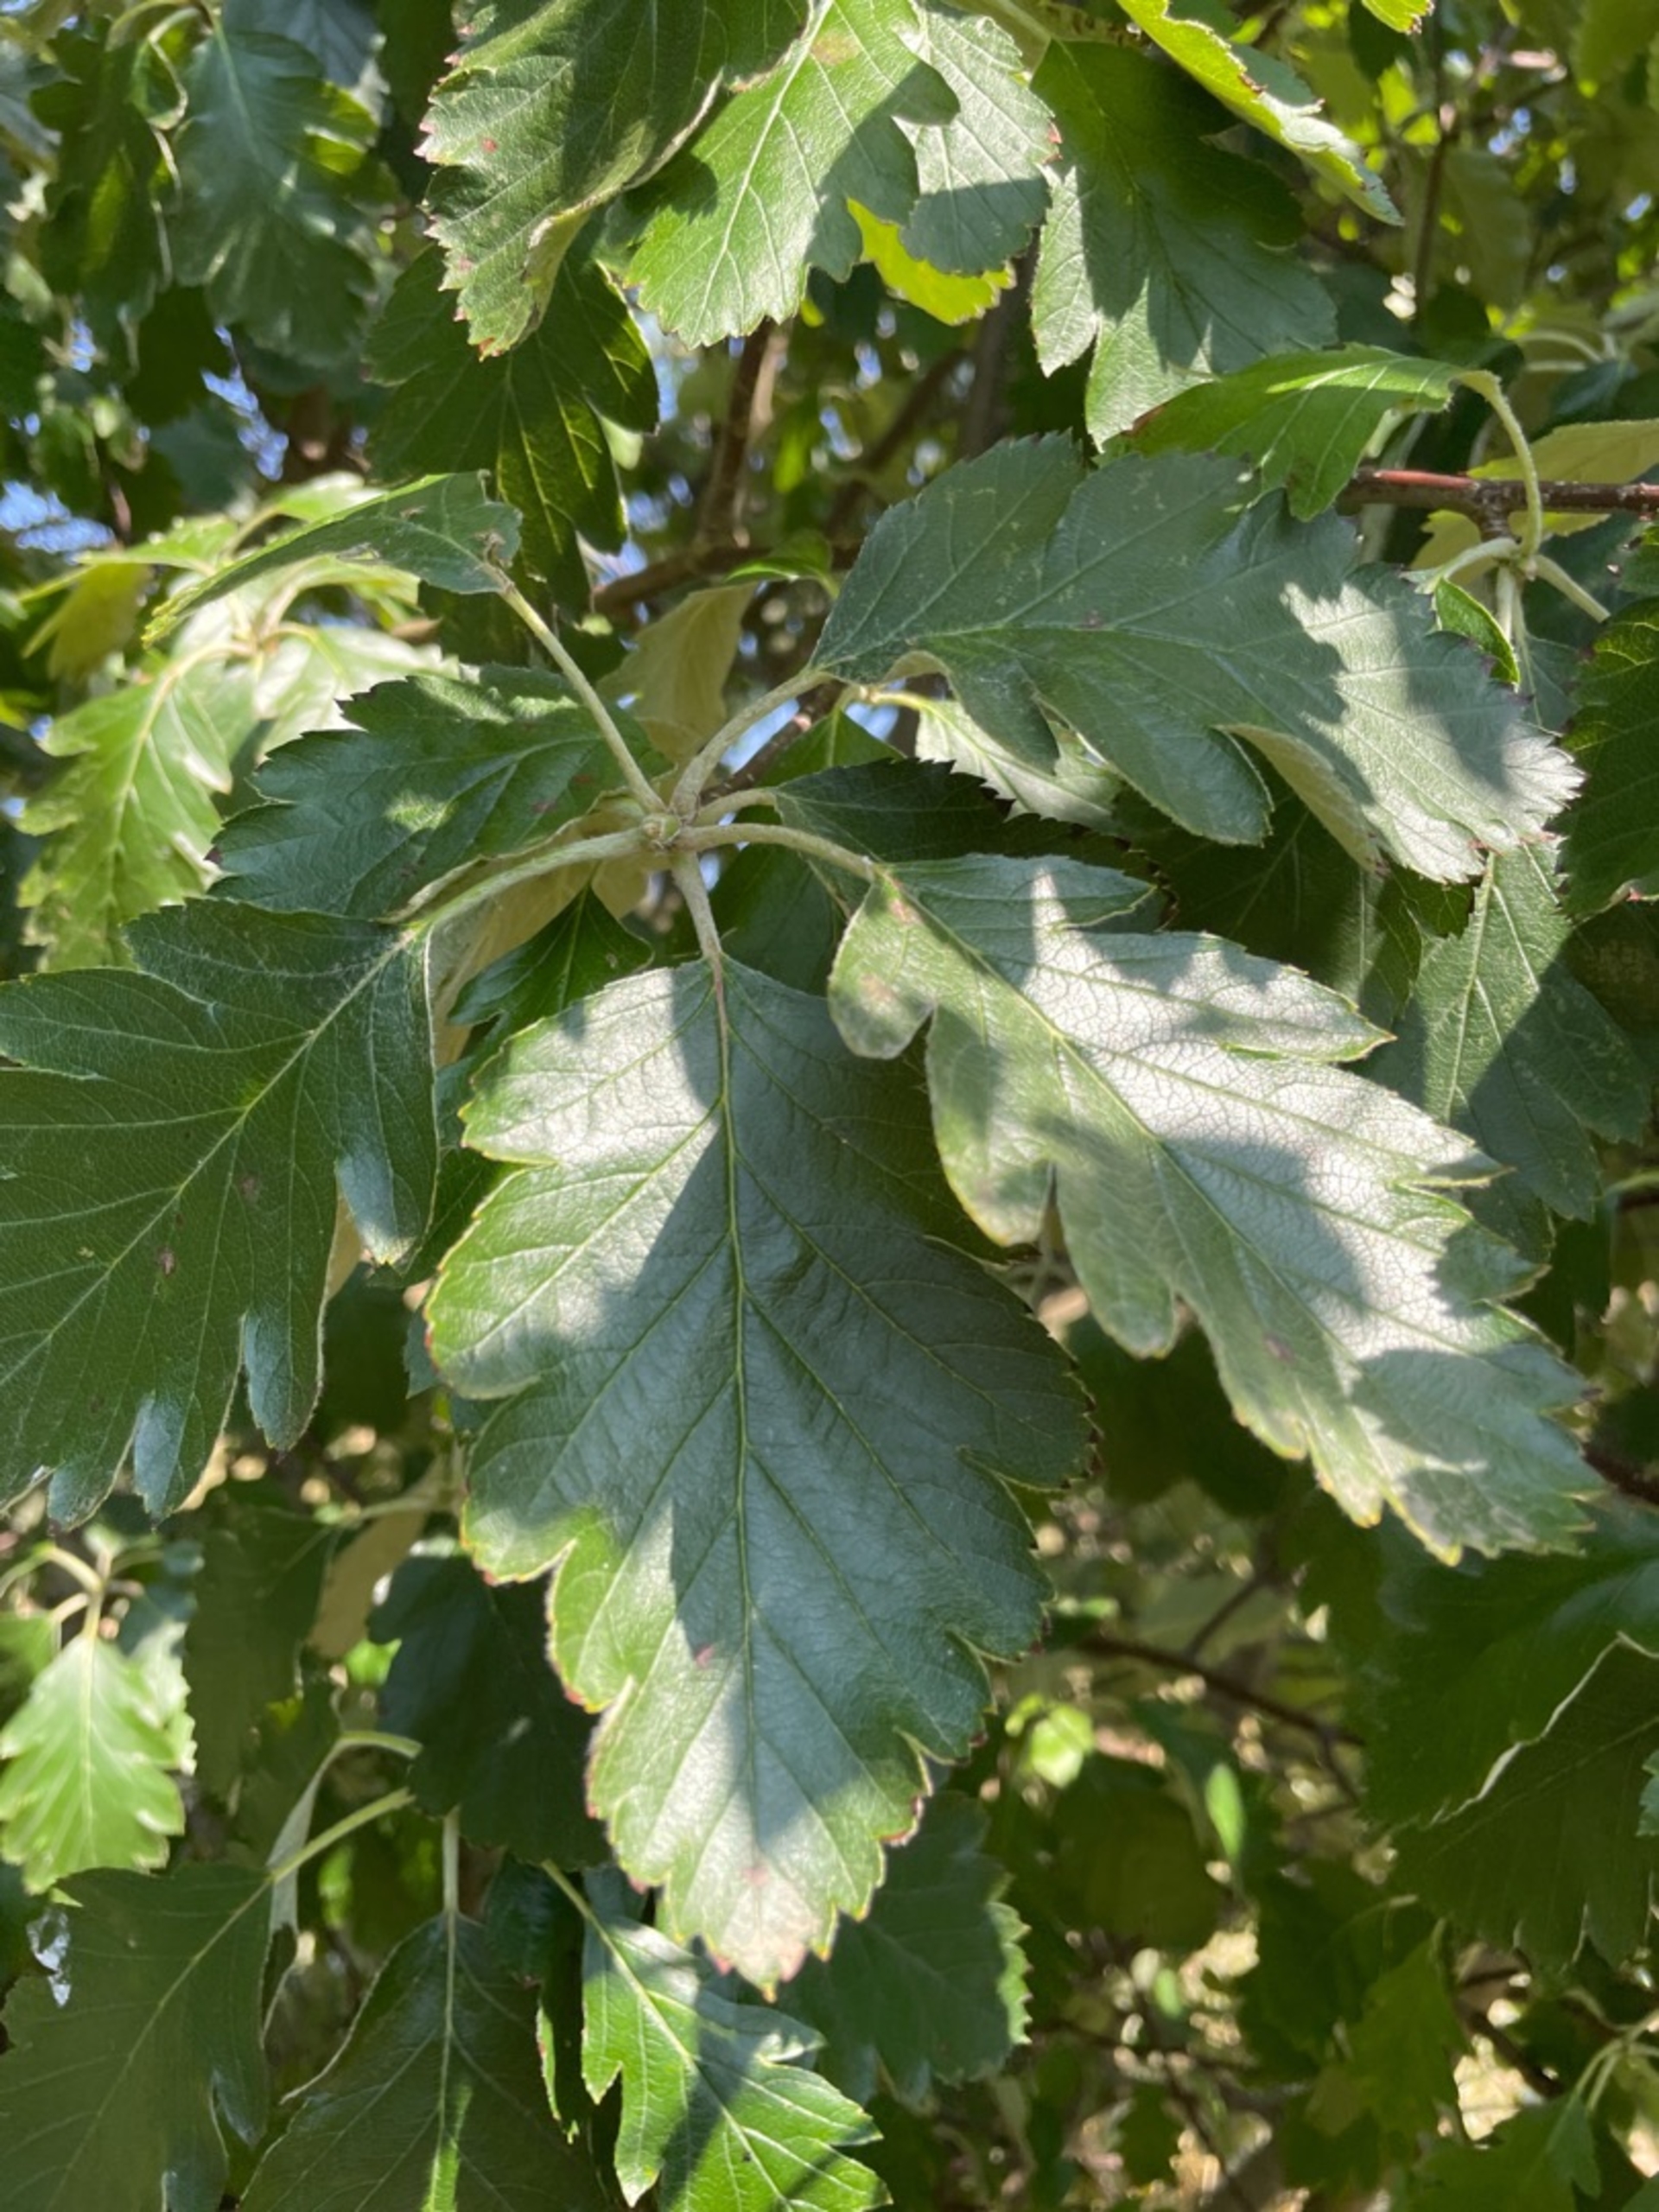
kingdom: Plantae
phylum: Tracheophyta
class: Magnoliopsida
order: Rosales
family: Rosaceae
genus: Scandosorbus
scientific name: Scandosorbus intermedia
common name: Selje-røn
